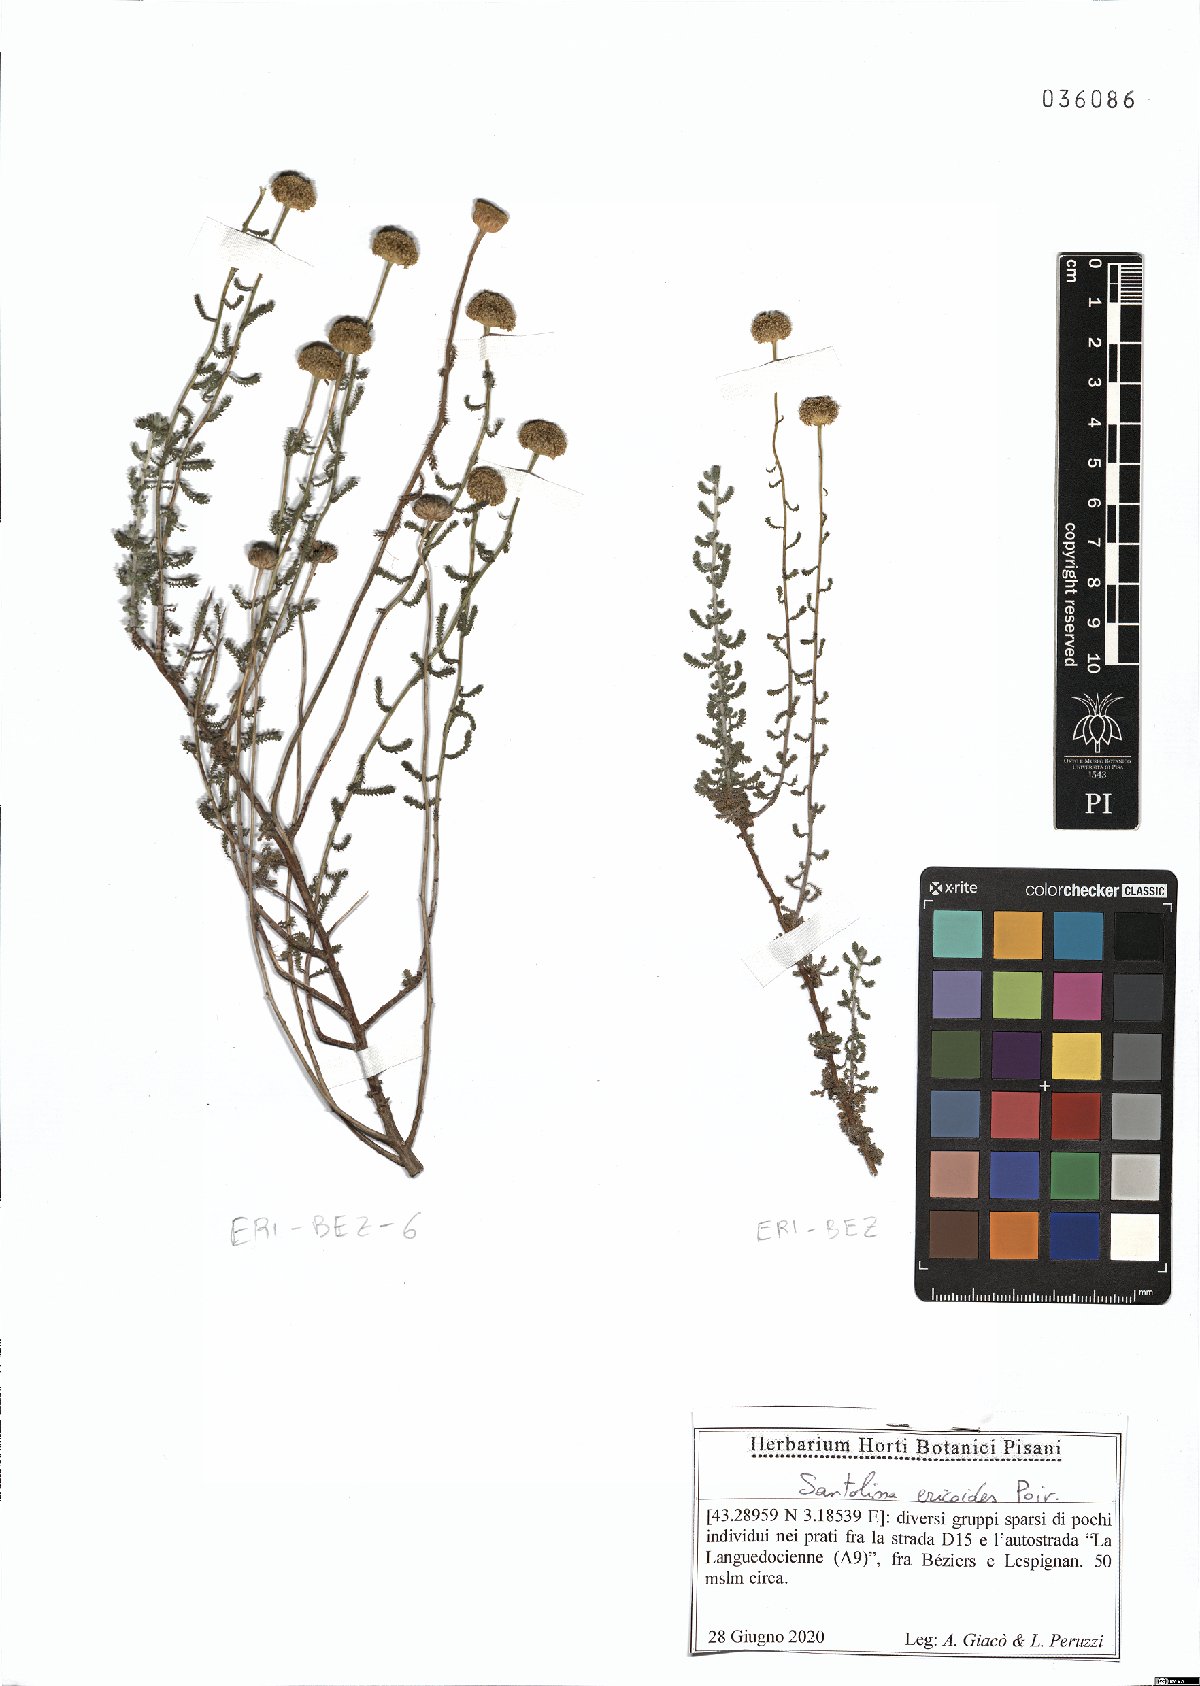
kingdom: Plantae
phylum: Tracheophyta
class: Magnoliopsida
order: Asterales
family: Asteraceae
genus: Santolina
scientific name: Santolina ericoides
